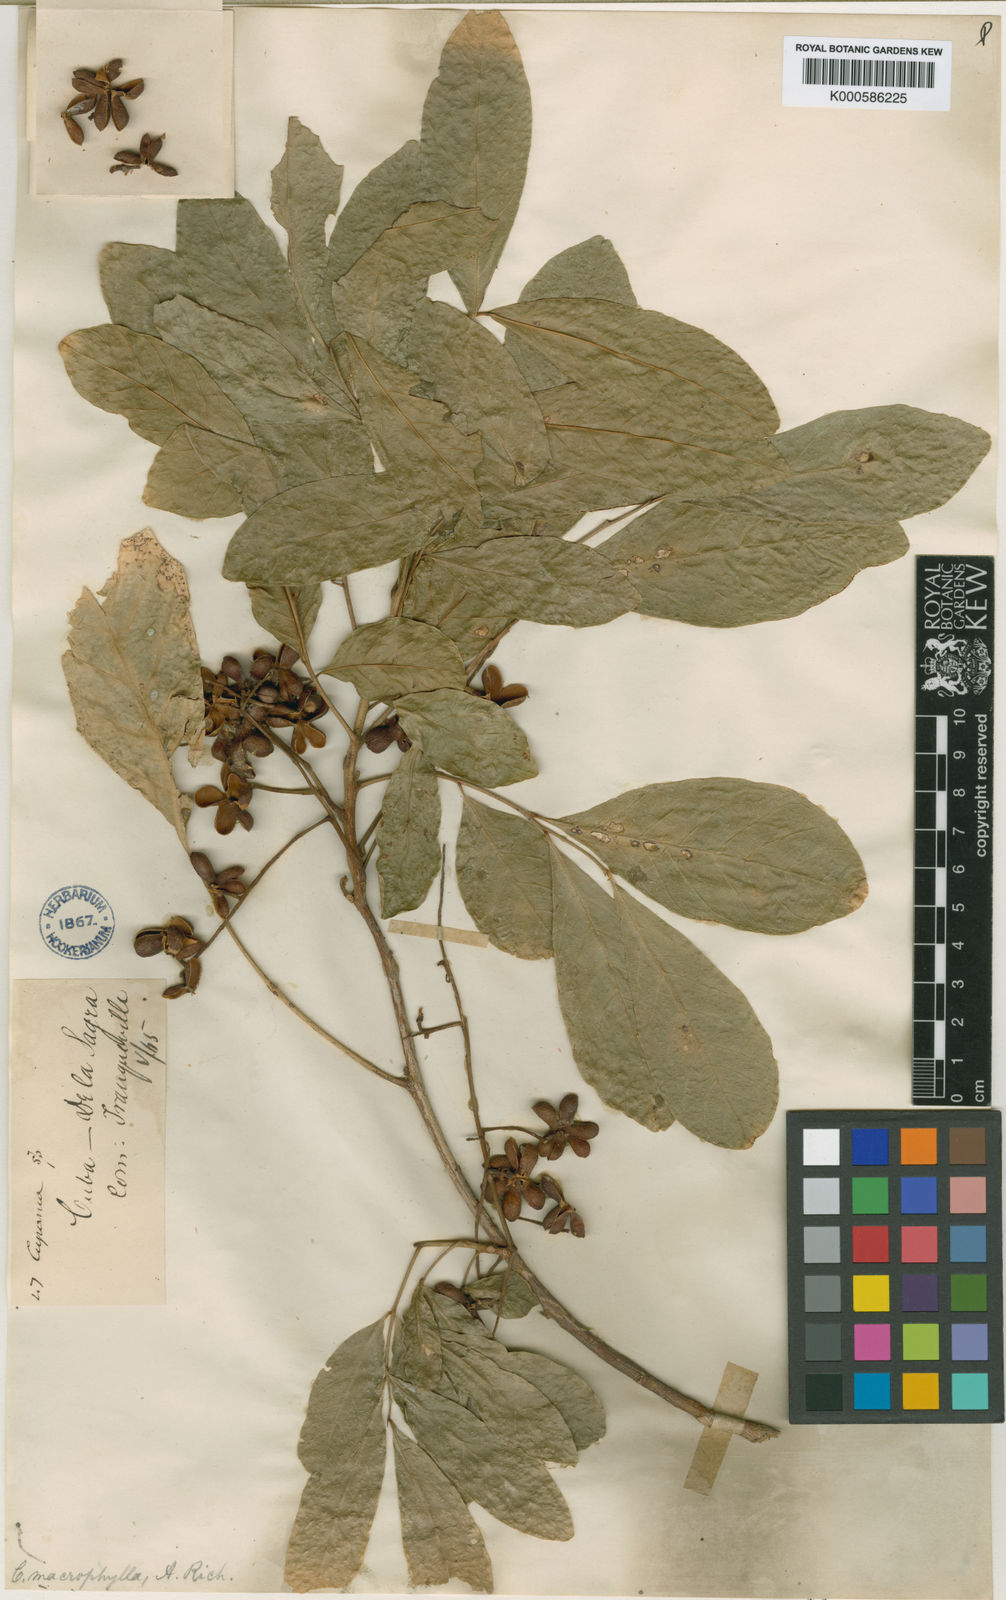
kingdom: Plantae
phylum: Tracheophyta
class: Magnoliopsida
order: Sapindales
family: Sapindaceae
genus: Cupania
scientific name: Cupania juglandifolia
